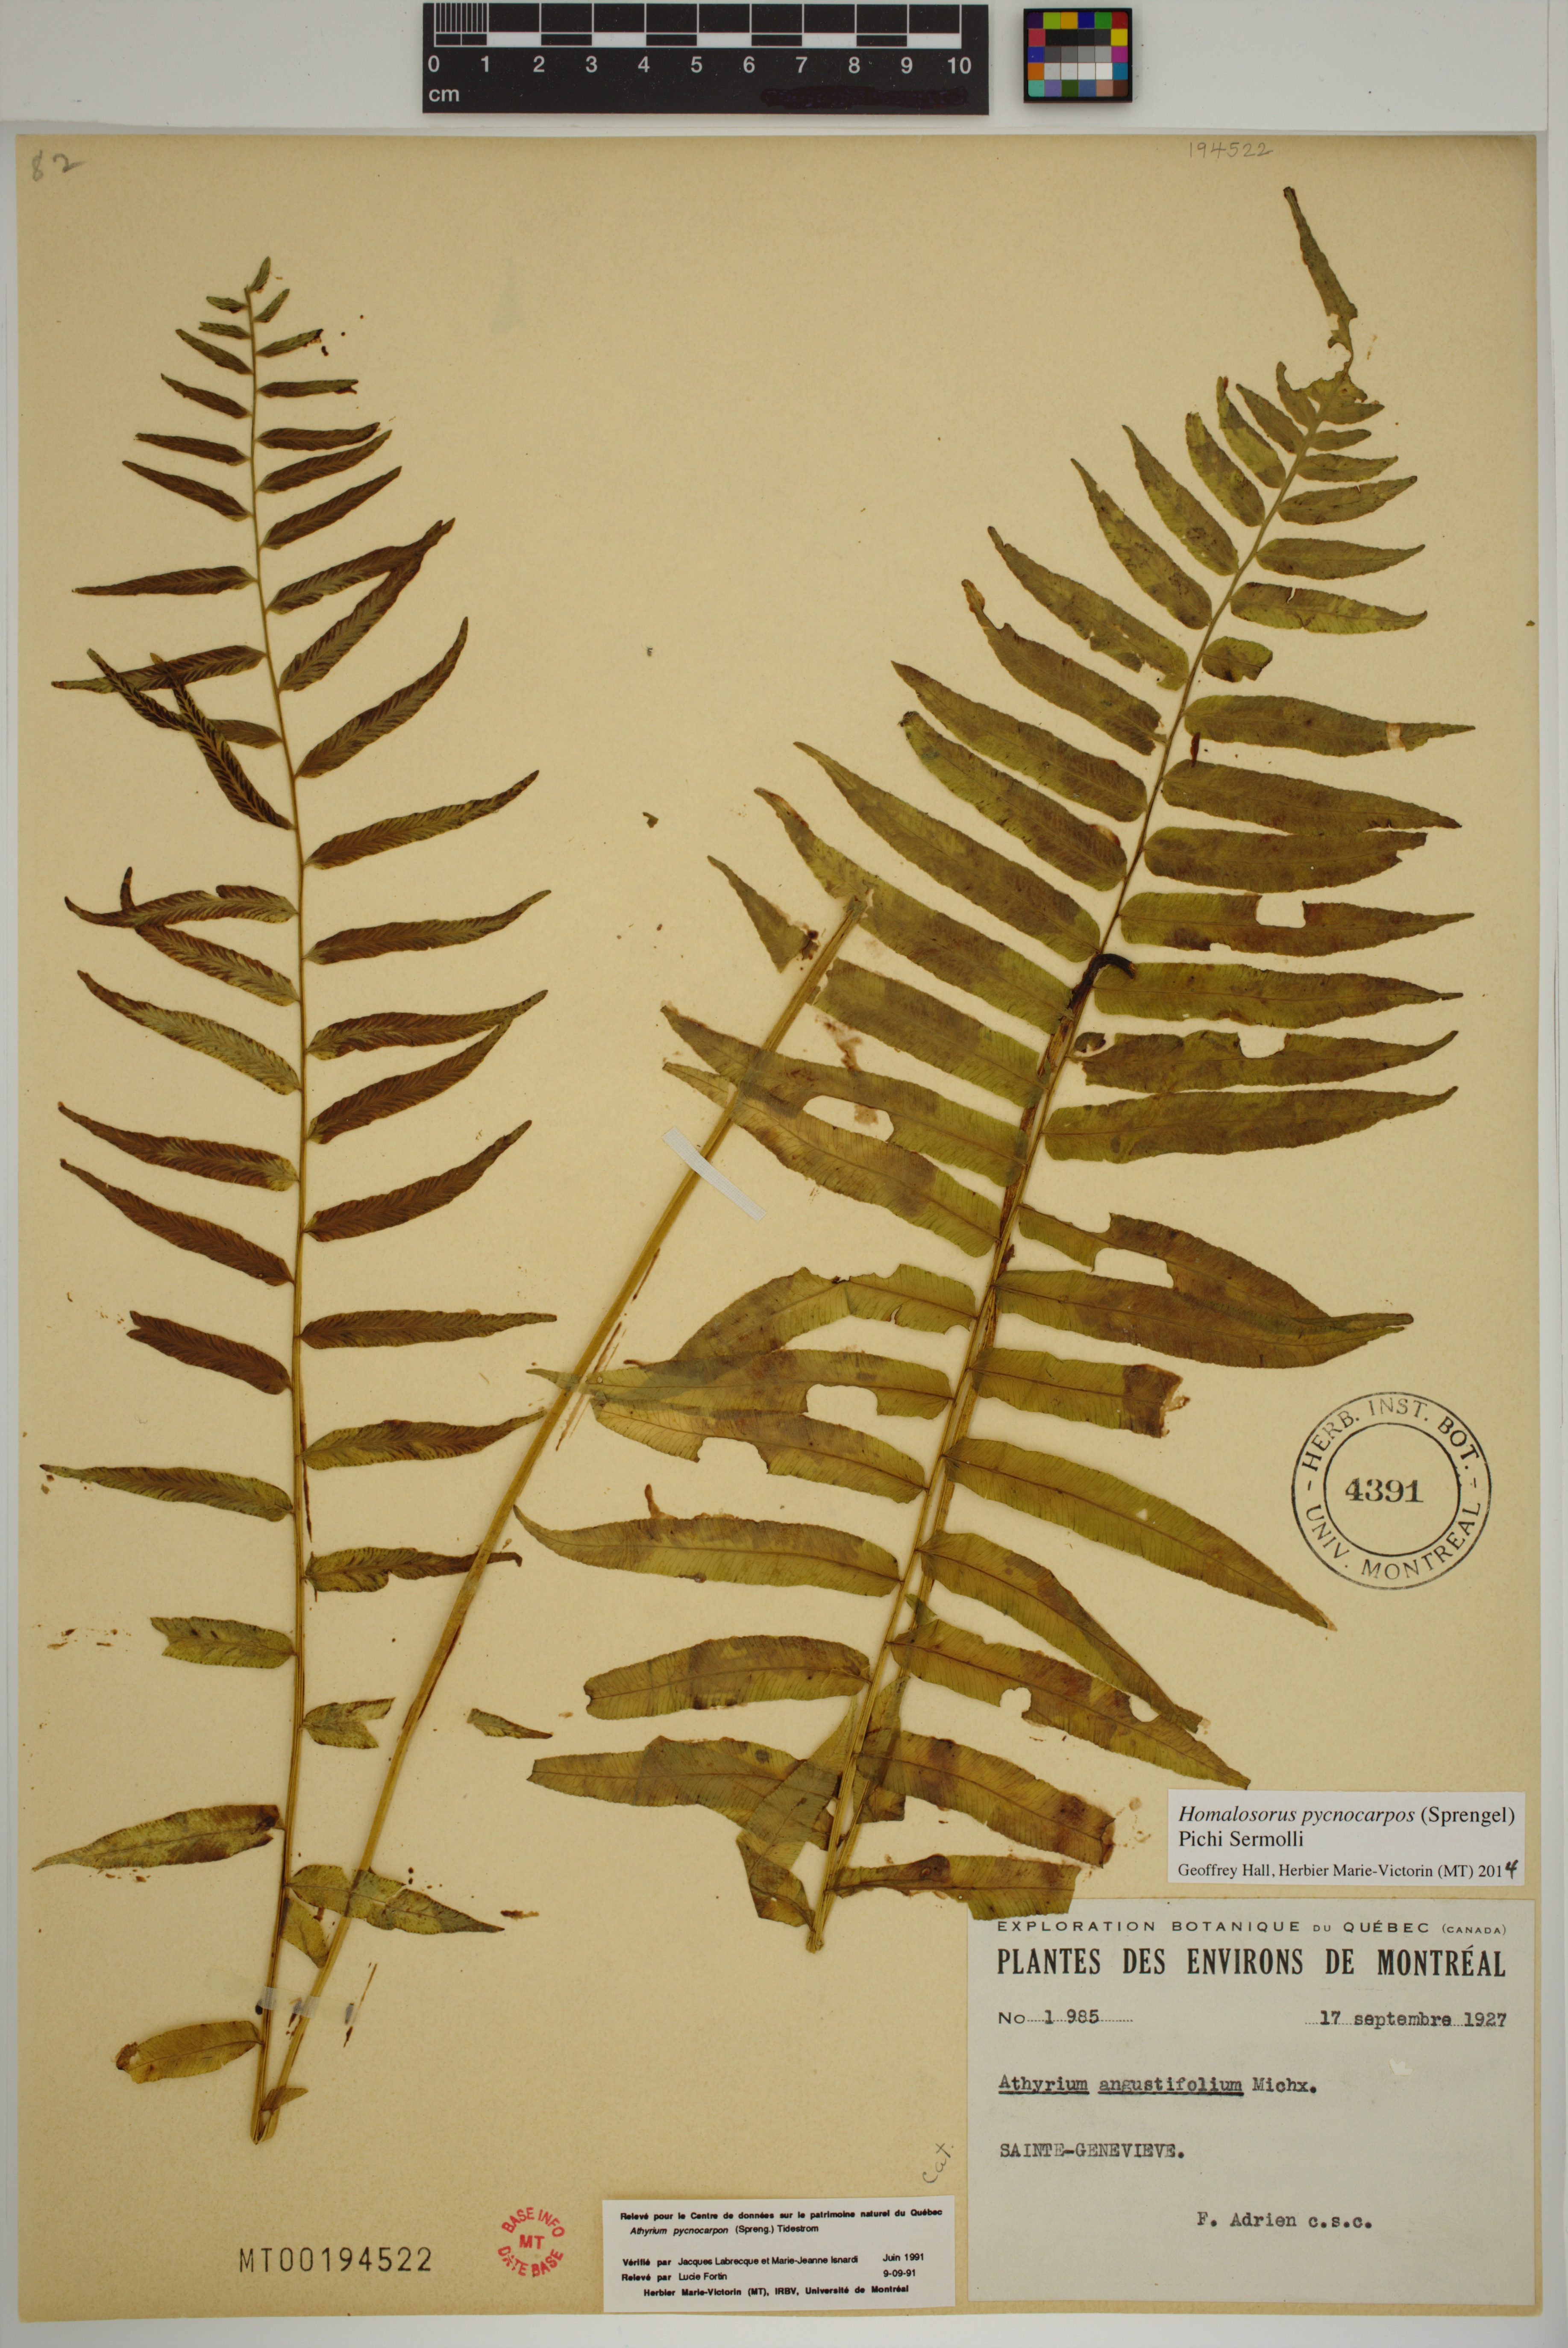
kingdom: Plantae
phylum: Tracheophyta
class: Polypodiopsida
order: Polypodiales
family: Diplaziopsidaceae
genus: Homalosorus
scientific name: Homalosorus pycnocarpos
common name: Glade fern
